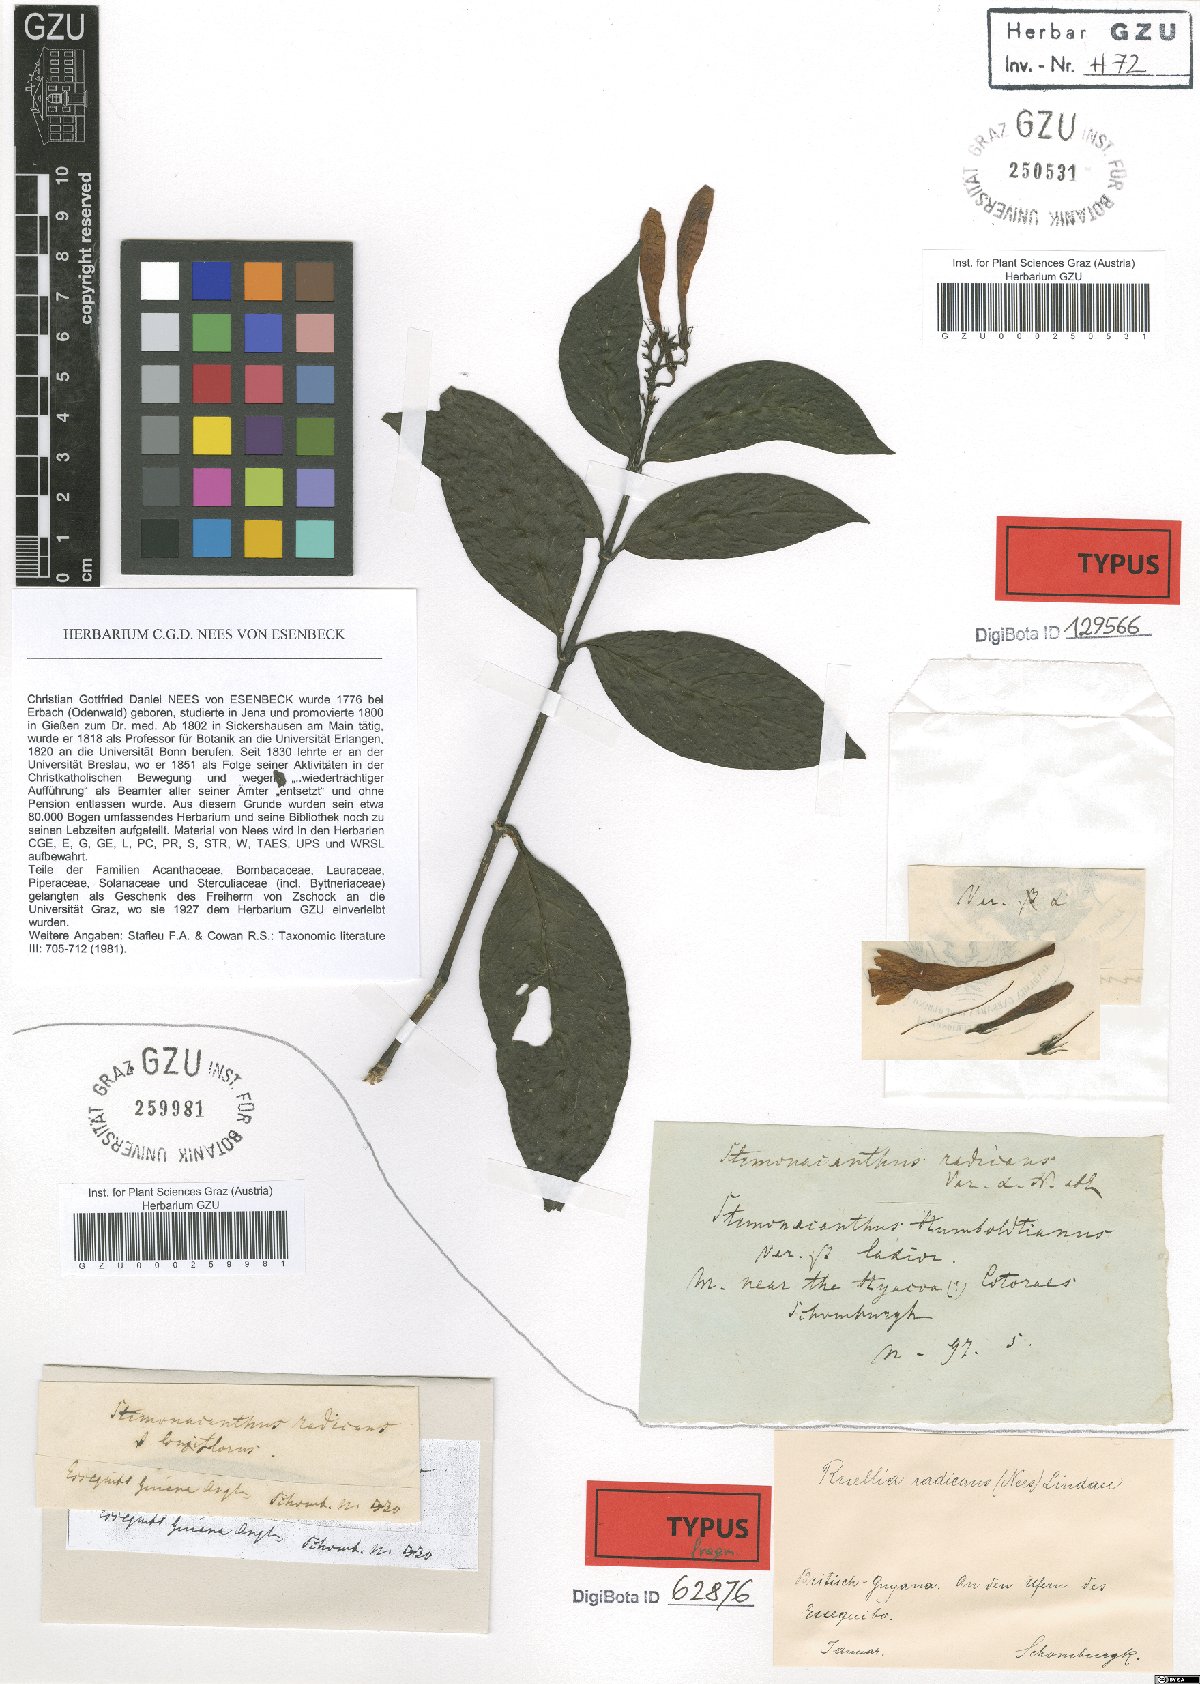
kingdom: Plantae
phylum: Tracheophyta
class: Magnoliopsida
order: Lamiales
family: Acanthaceae
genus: Ruellia
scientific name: Ruellia radicans
